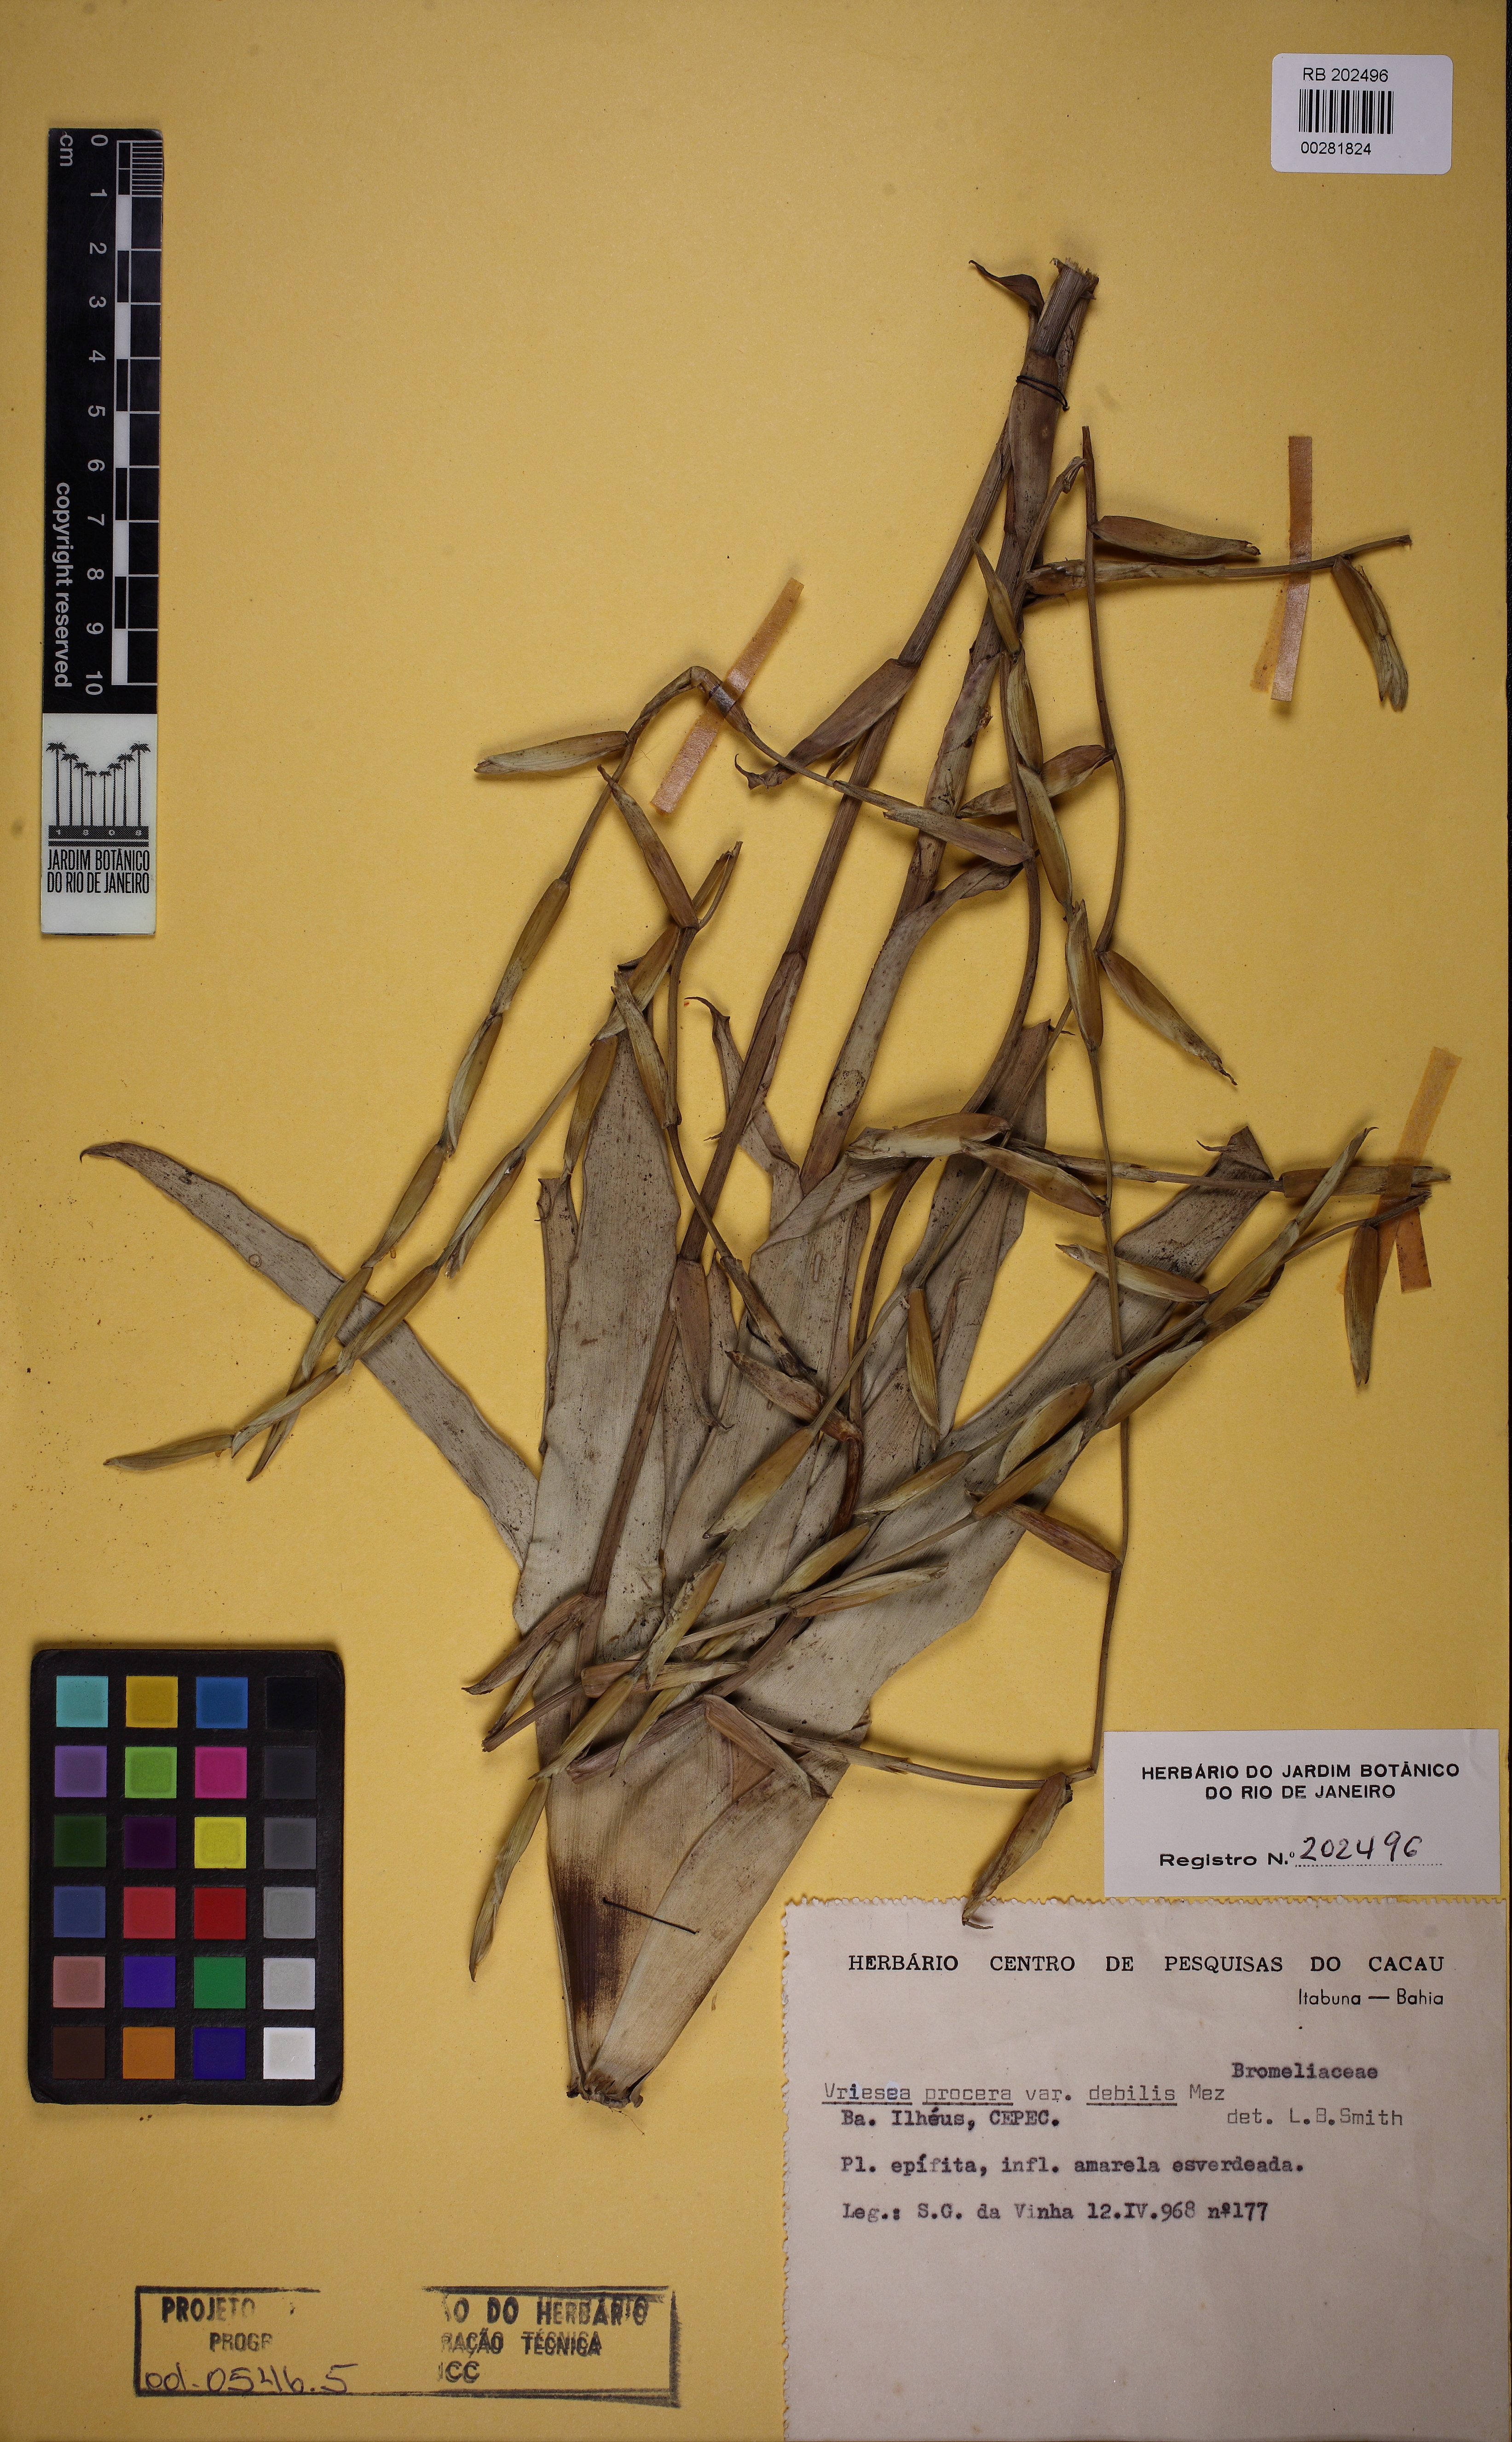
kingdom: Plantae
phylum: Tracheophyta
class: Liliopsida
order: Poales
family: Bromeliaceae
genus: Vriesea
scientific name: Vriesea procera
